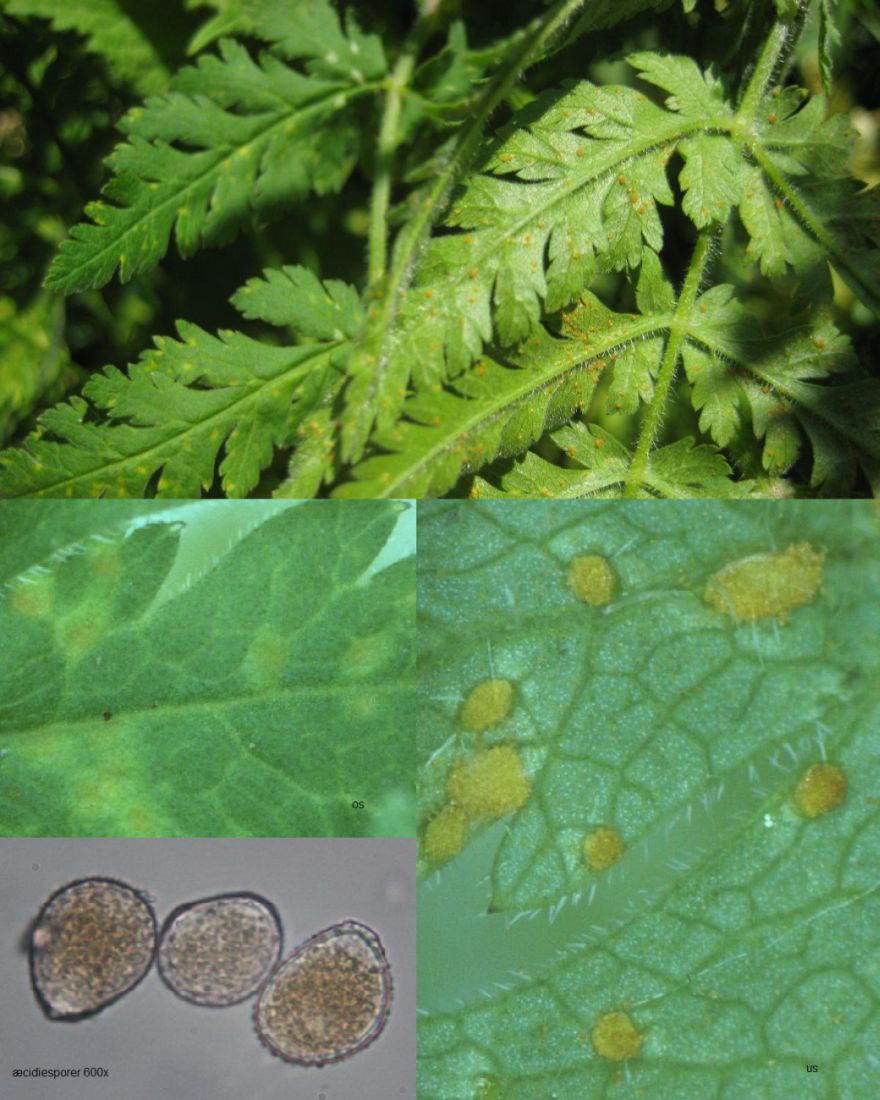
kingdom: Fungi
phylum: Basidiomycota
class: Pucciniomycetes
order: Pucciniales
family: Pucciniaceae
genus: Puccinia
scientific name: Puccinia chaerophylli
